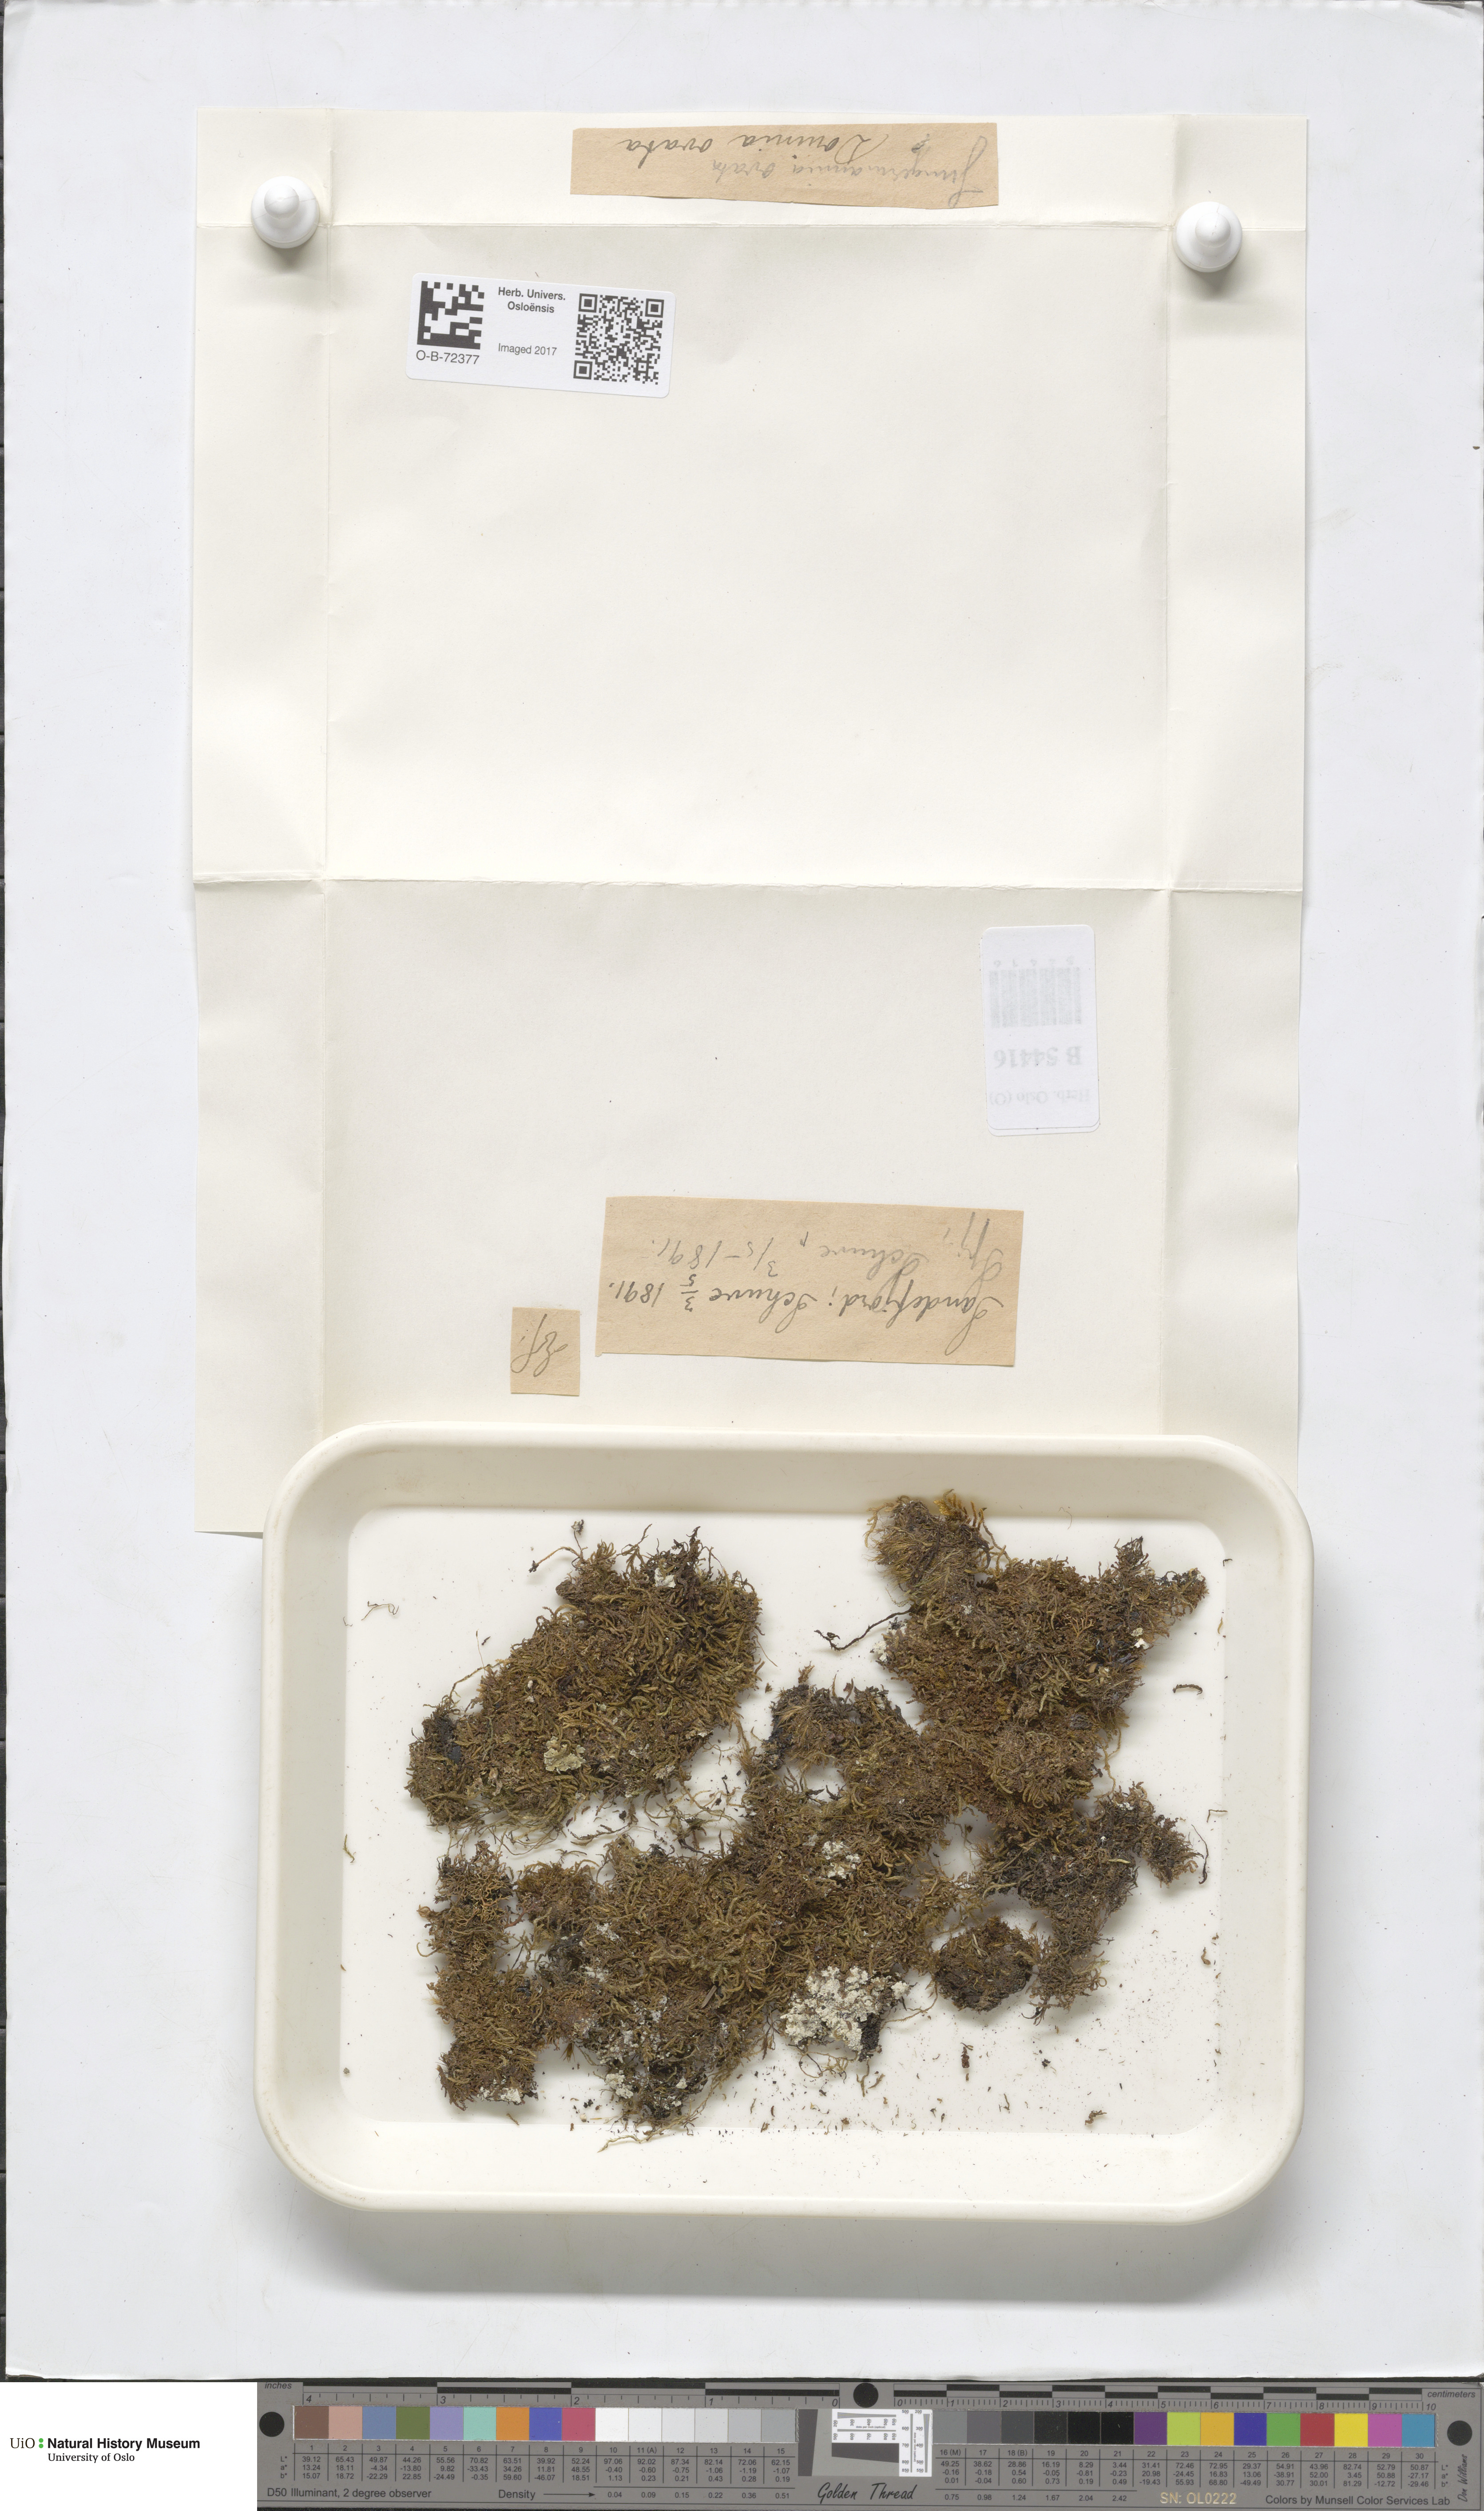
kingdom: Plantae
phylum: Marchantiophyta
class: Jungermanniopsida
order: Jungermanniales
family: Scapaniaceae
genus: Douinia
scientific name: Douinia ovata
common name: Waxy earwort
